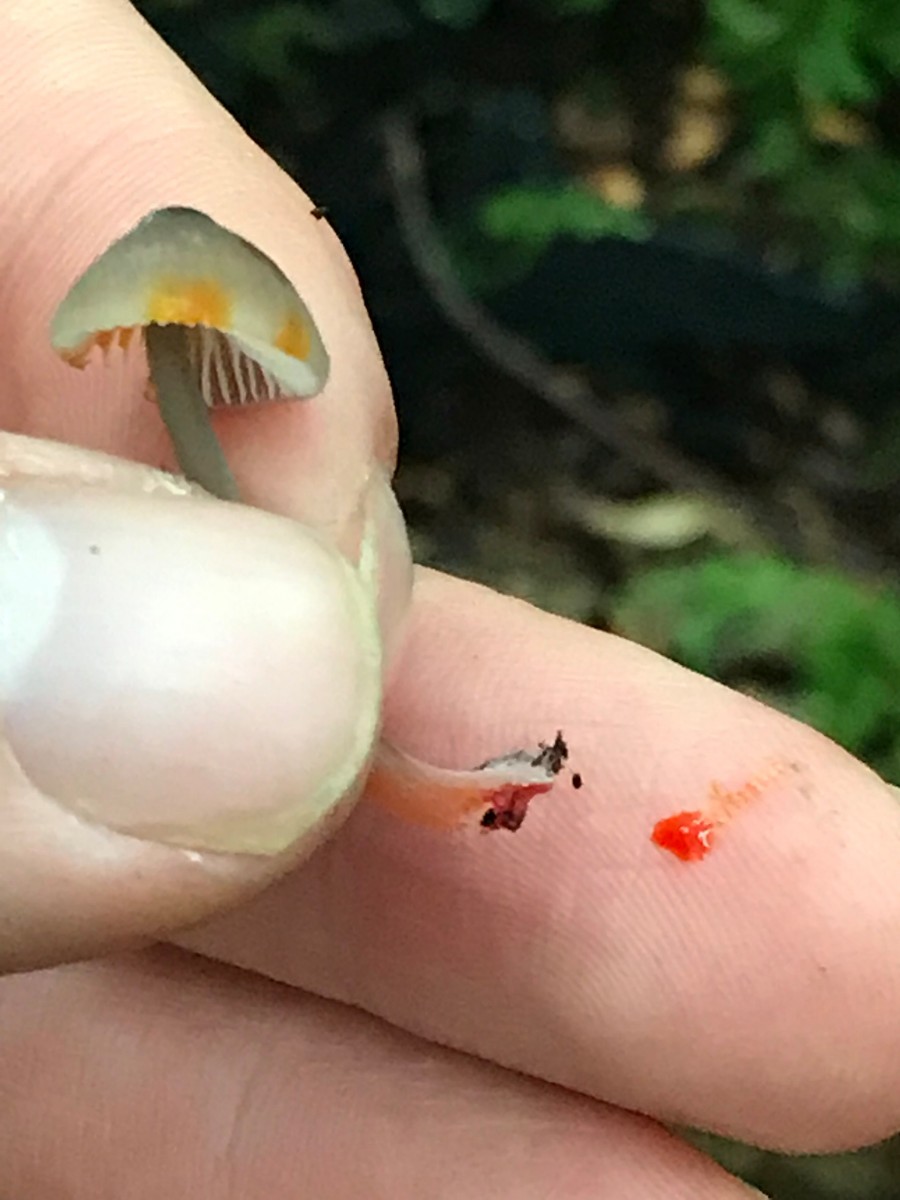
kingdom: Fungi
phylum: Basidiomycota
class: Agaricomycetes
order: Agaricales
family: Mycenaceae
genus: Mycena
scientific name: Mycena crocata
